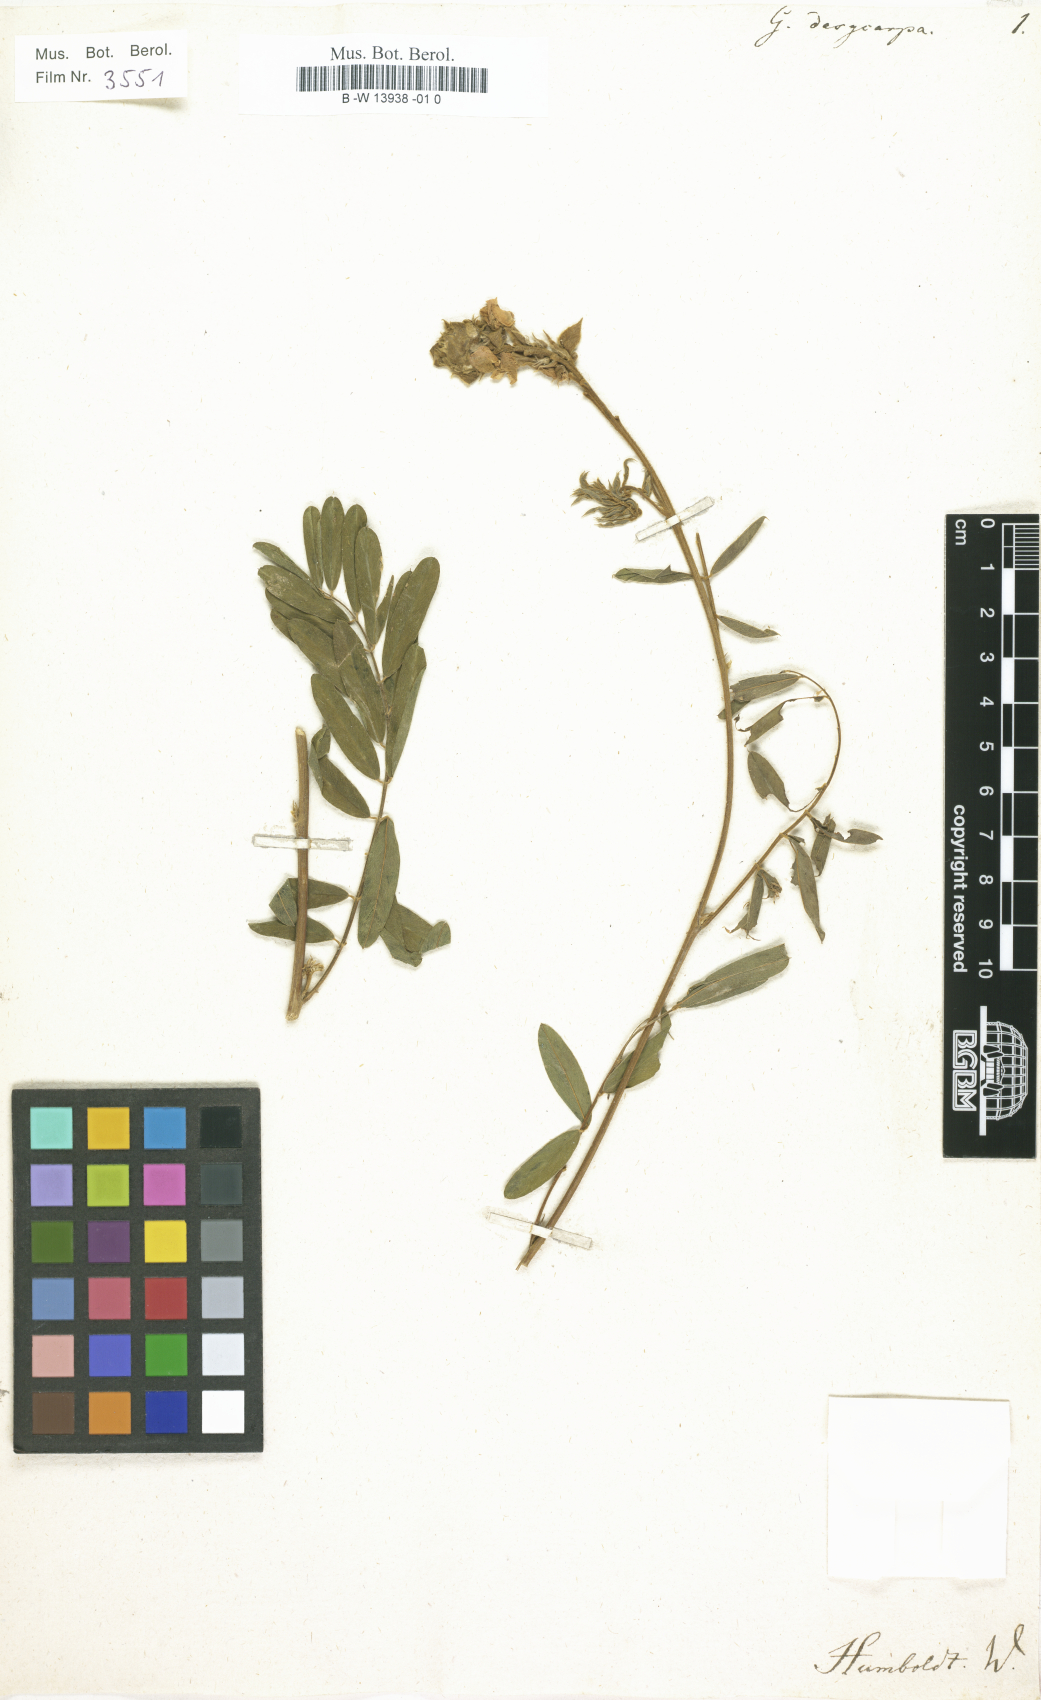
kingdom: Plantae
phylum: Tracheophyta
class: Magnoliopsida
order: Fabales
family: Fabaceae
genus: Galega
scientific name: Galega
